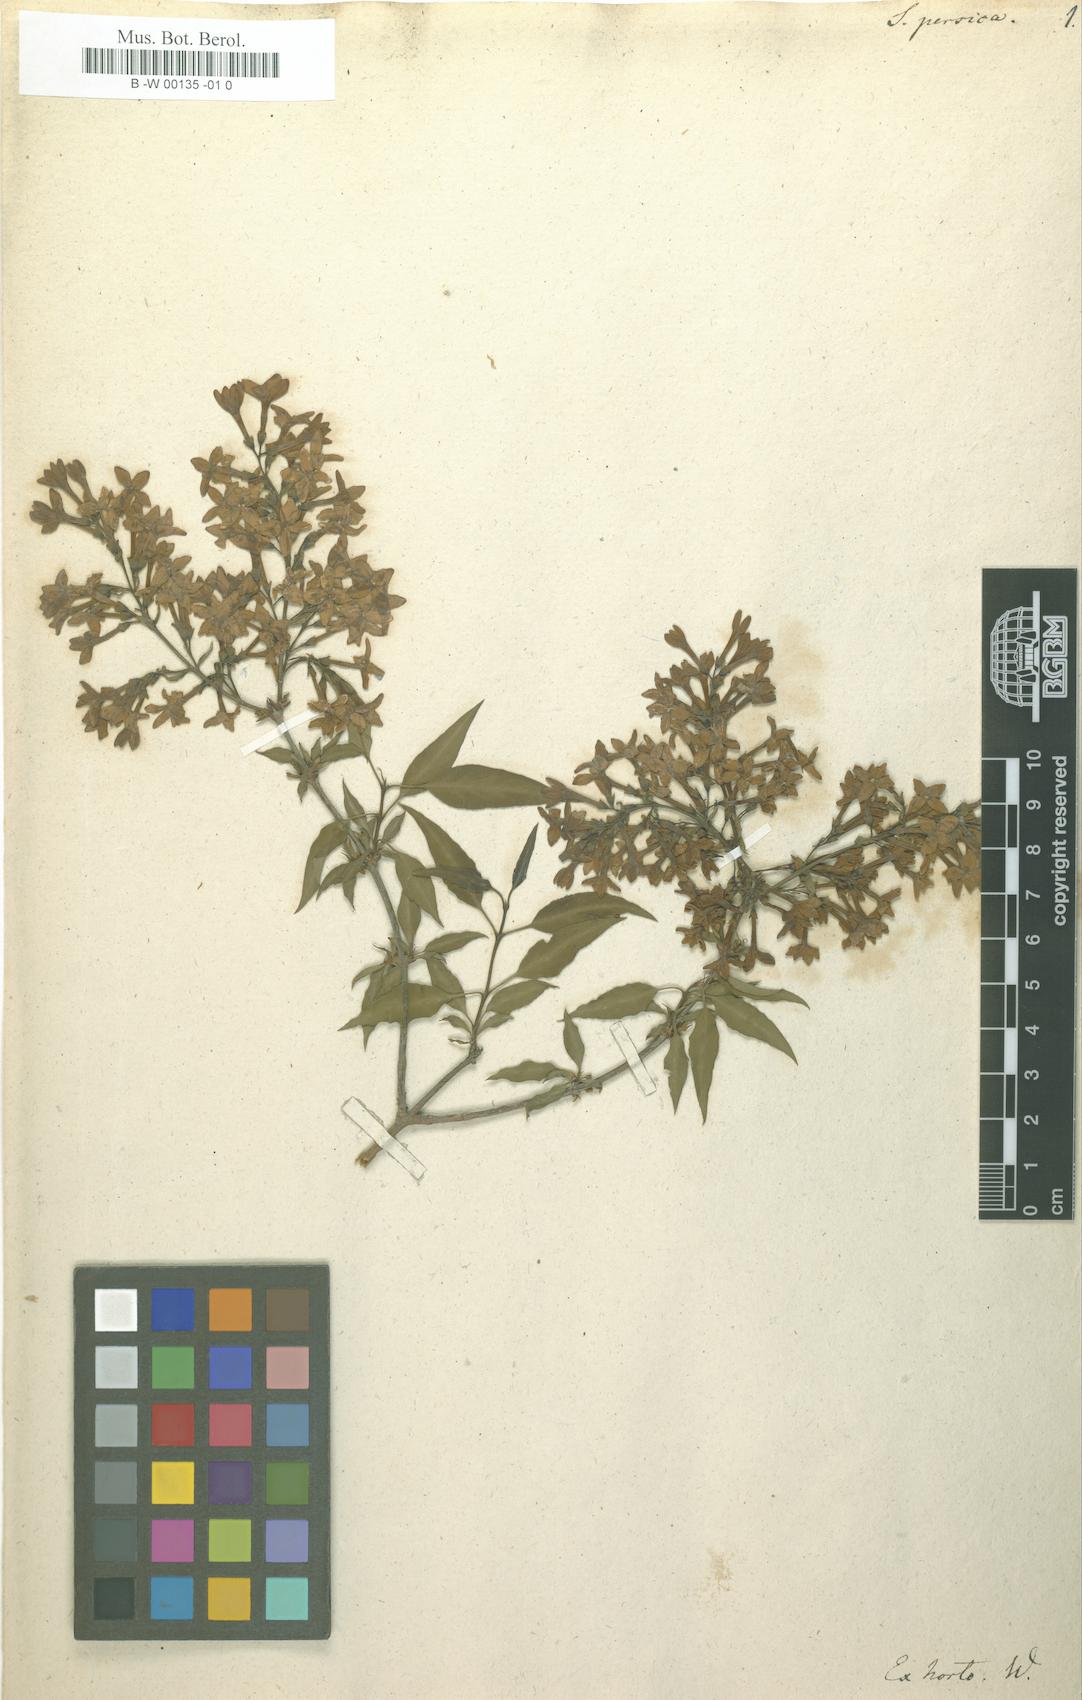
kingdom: Plantae
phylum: Tracheophyta
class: Magnoliopsida
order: Lamiales
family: Oleaceae
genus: Syringa
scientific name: Syringa persica
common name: Persian lilac
